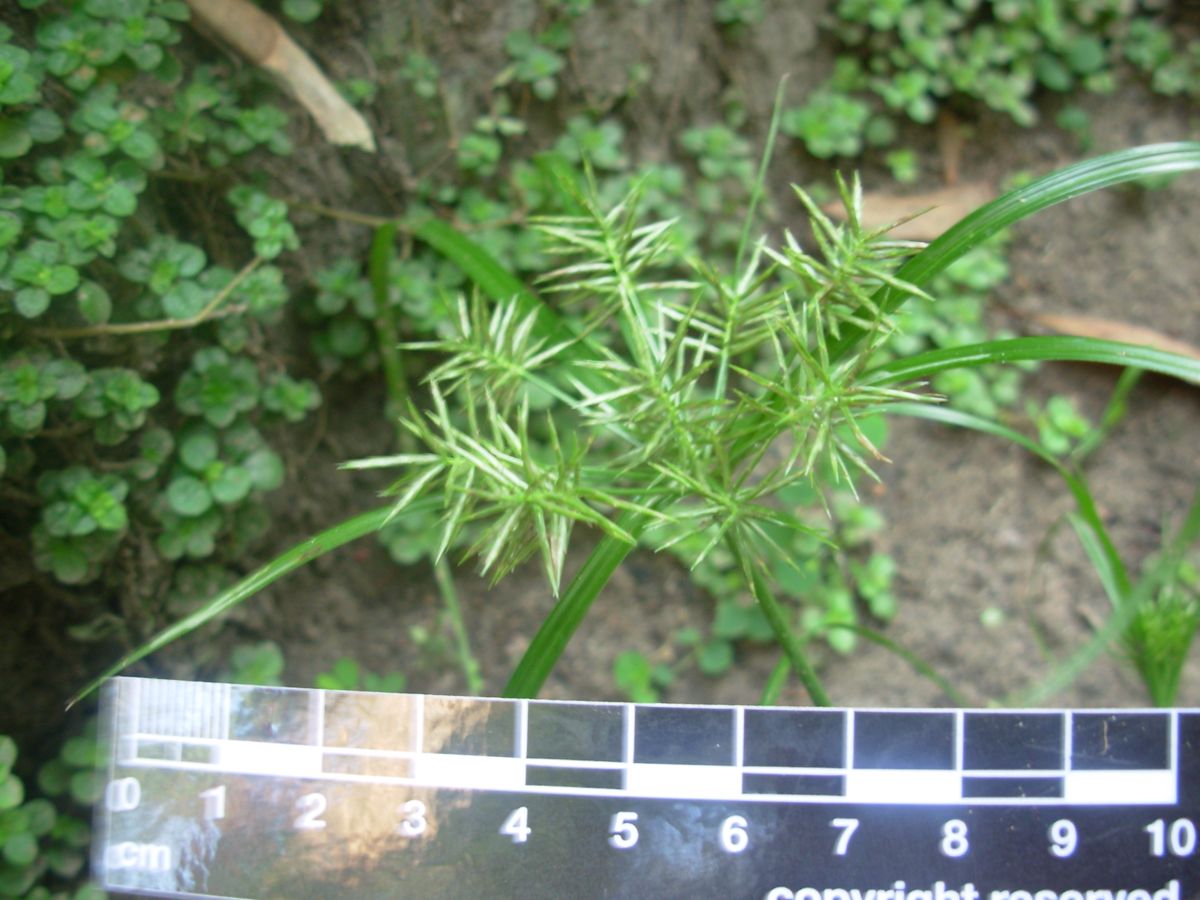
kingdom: Plantae
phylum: Tracheophyta
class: Liliopsida
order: Poales
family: Cyperaceae
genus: Cyperus
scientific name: Cyperus hermaphroditus
